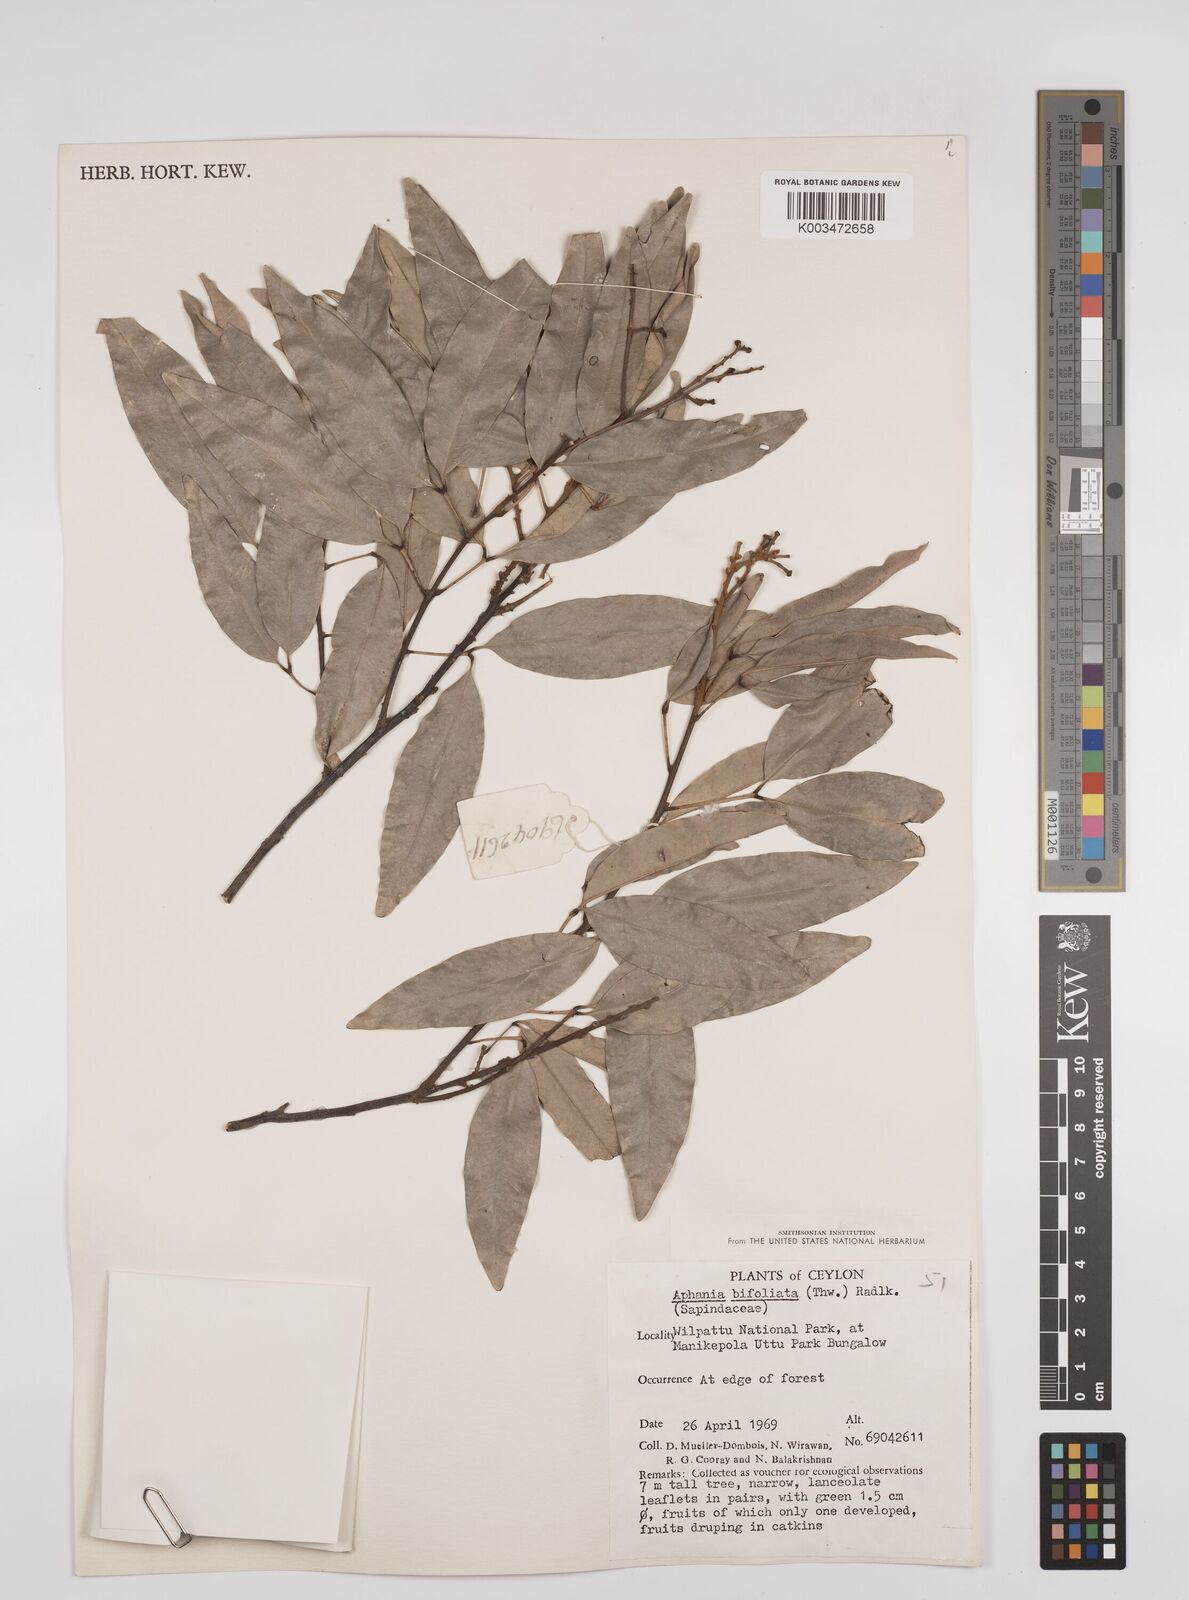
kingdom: Plantae
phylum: Tracheophyta
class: Magnoliopsida
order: Sapindales
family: Sapindaceae
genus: Lepisanthes
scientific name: Lepisanthes senegalensis
